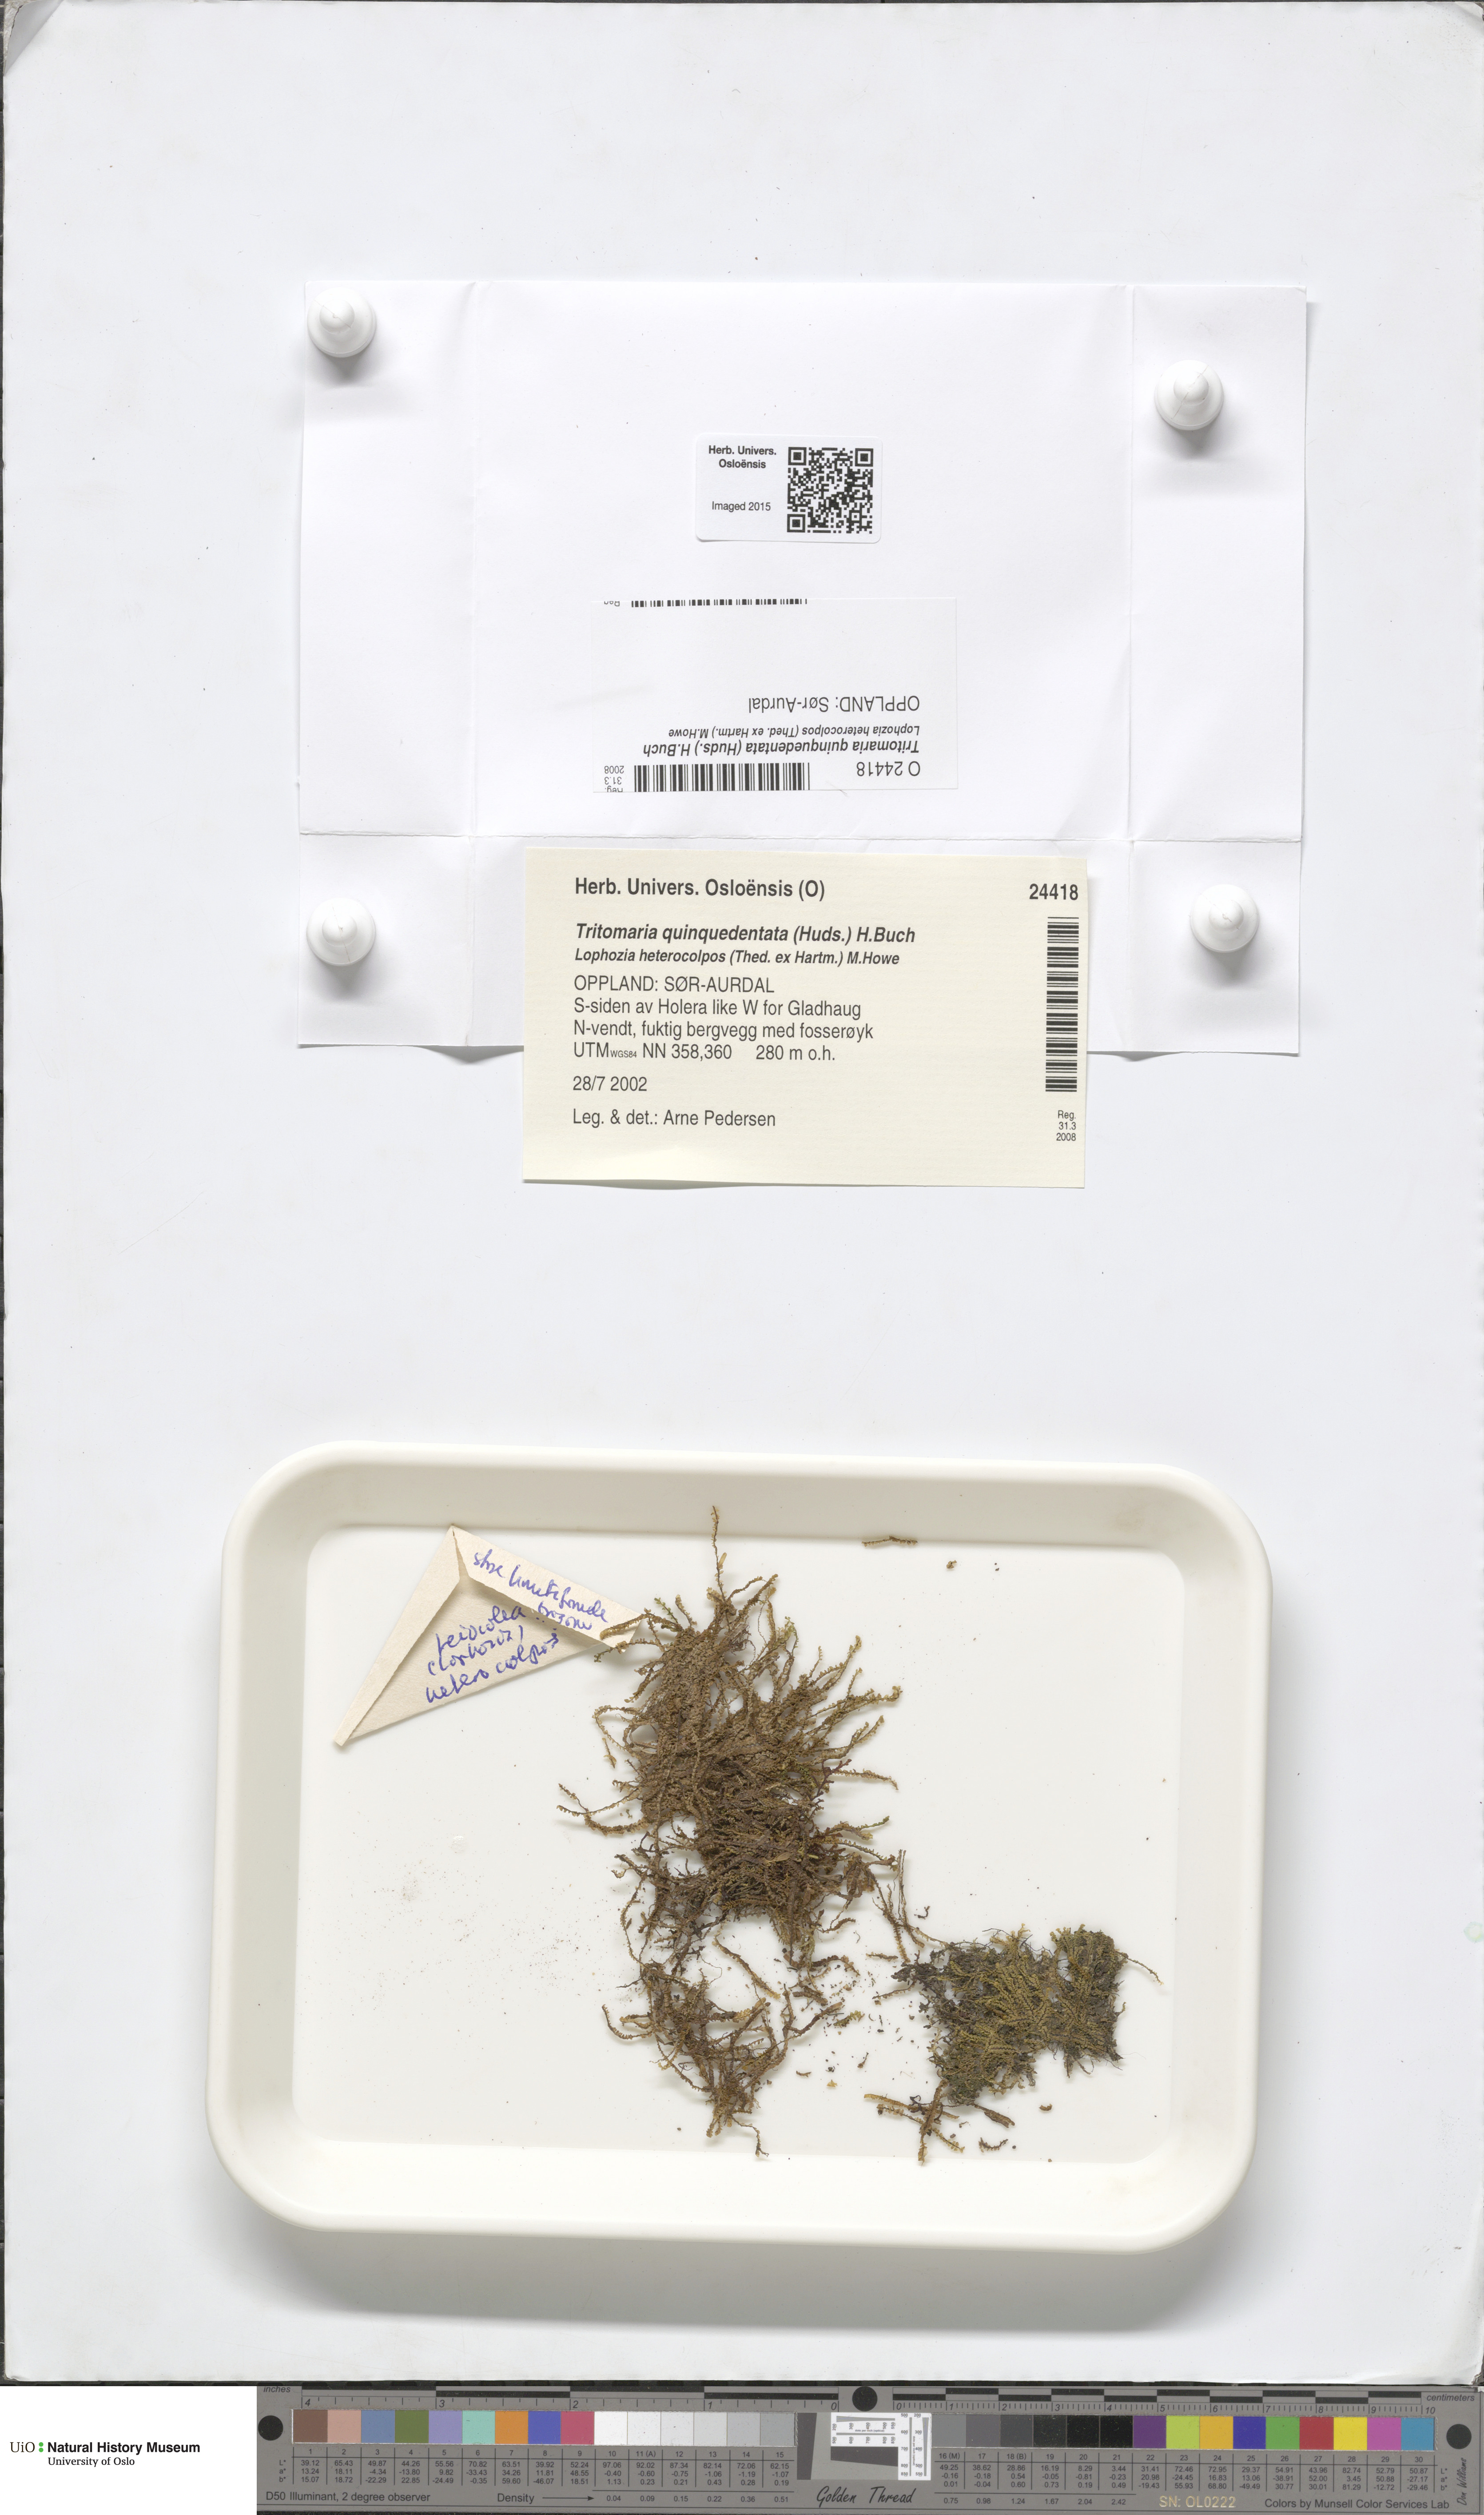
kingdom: Plantae
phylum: Marchantiophyta
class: Jungermanniopsida
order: Jungermanniales
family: Lophoziaceae
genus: Trilophozia
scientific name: Trilophozia quinquedentata
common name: Large notchwort
